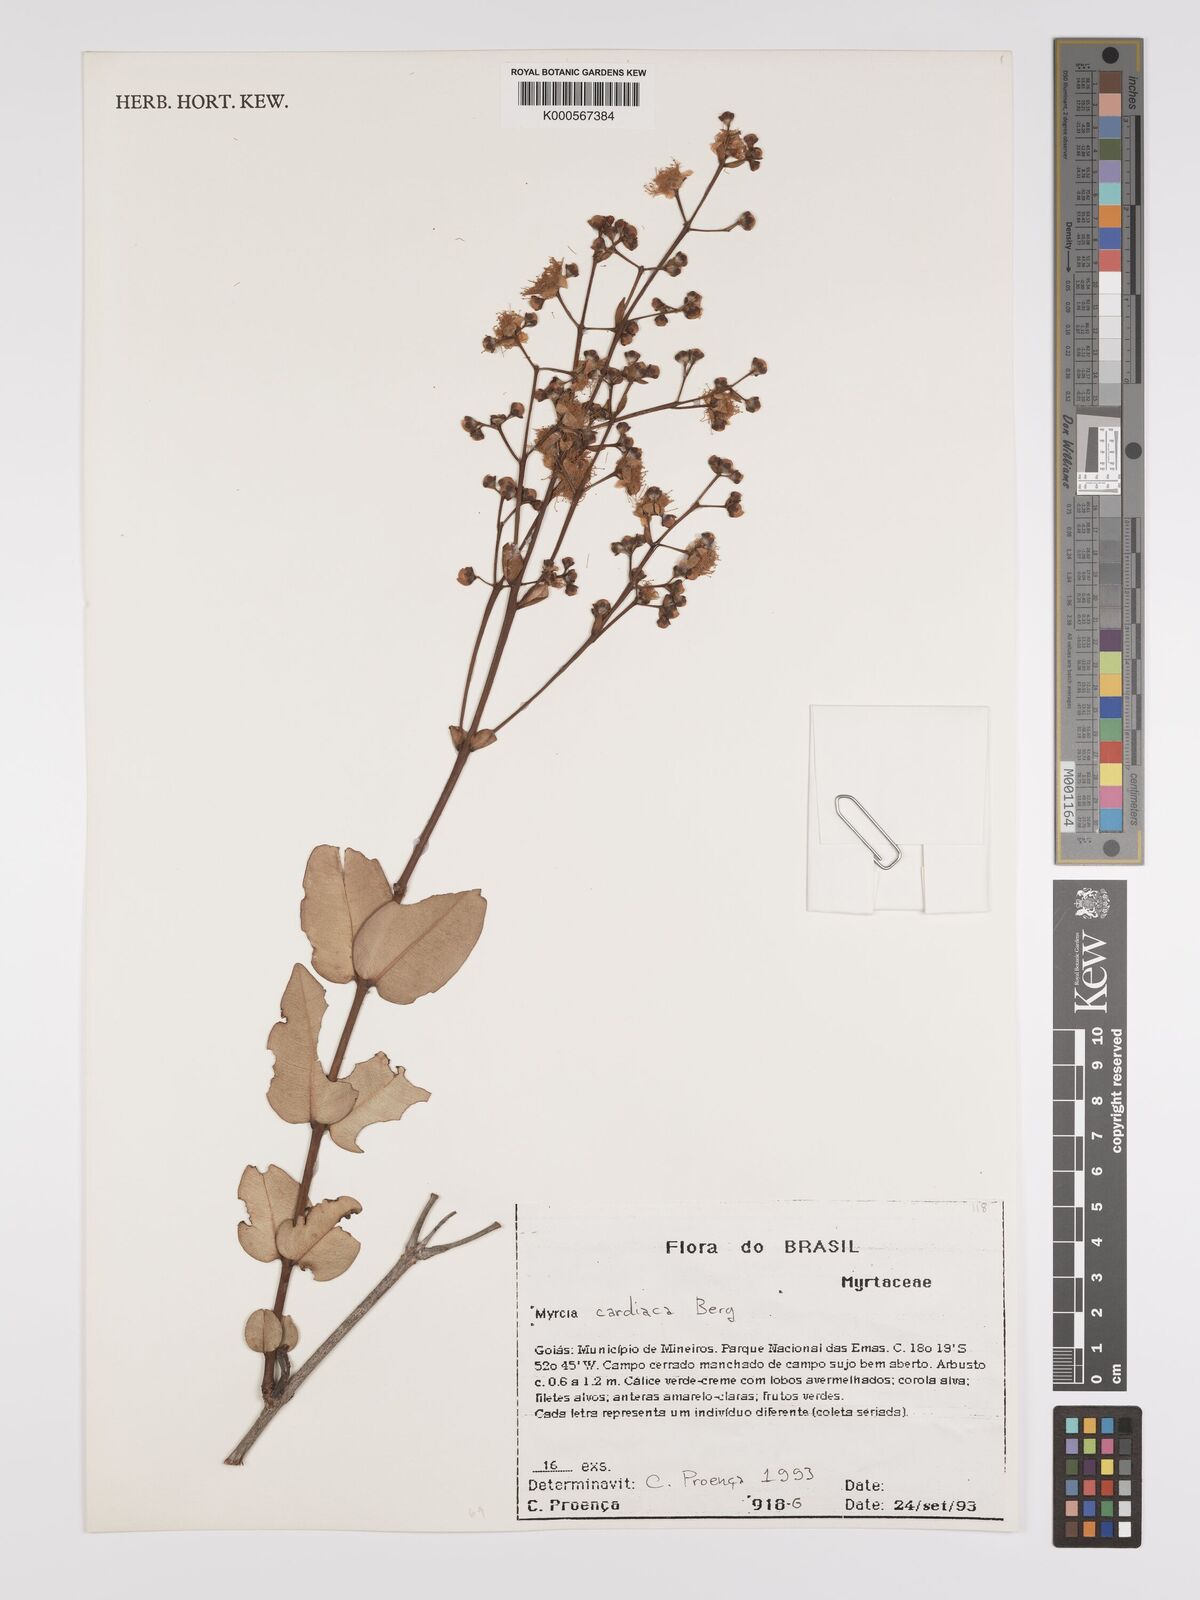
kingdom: Plantae
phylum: Tracheophyta
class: Magnoliopsida
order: Myrtales
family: Myrtaceae
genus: Myrcia
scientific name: Myrcia cardiaca
